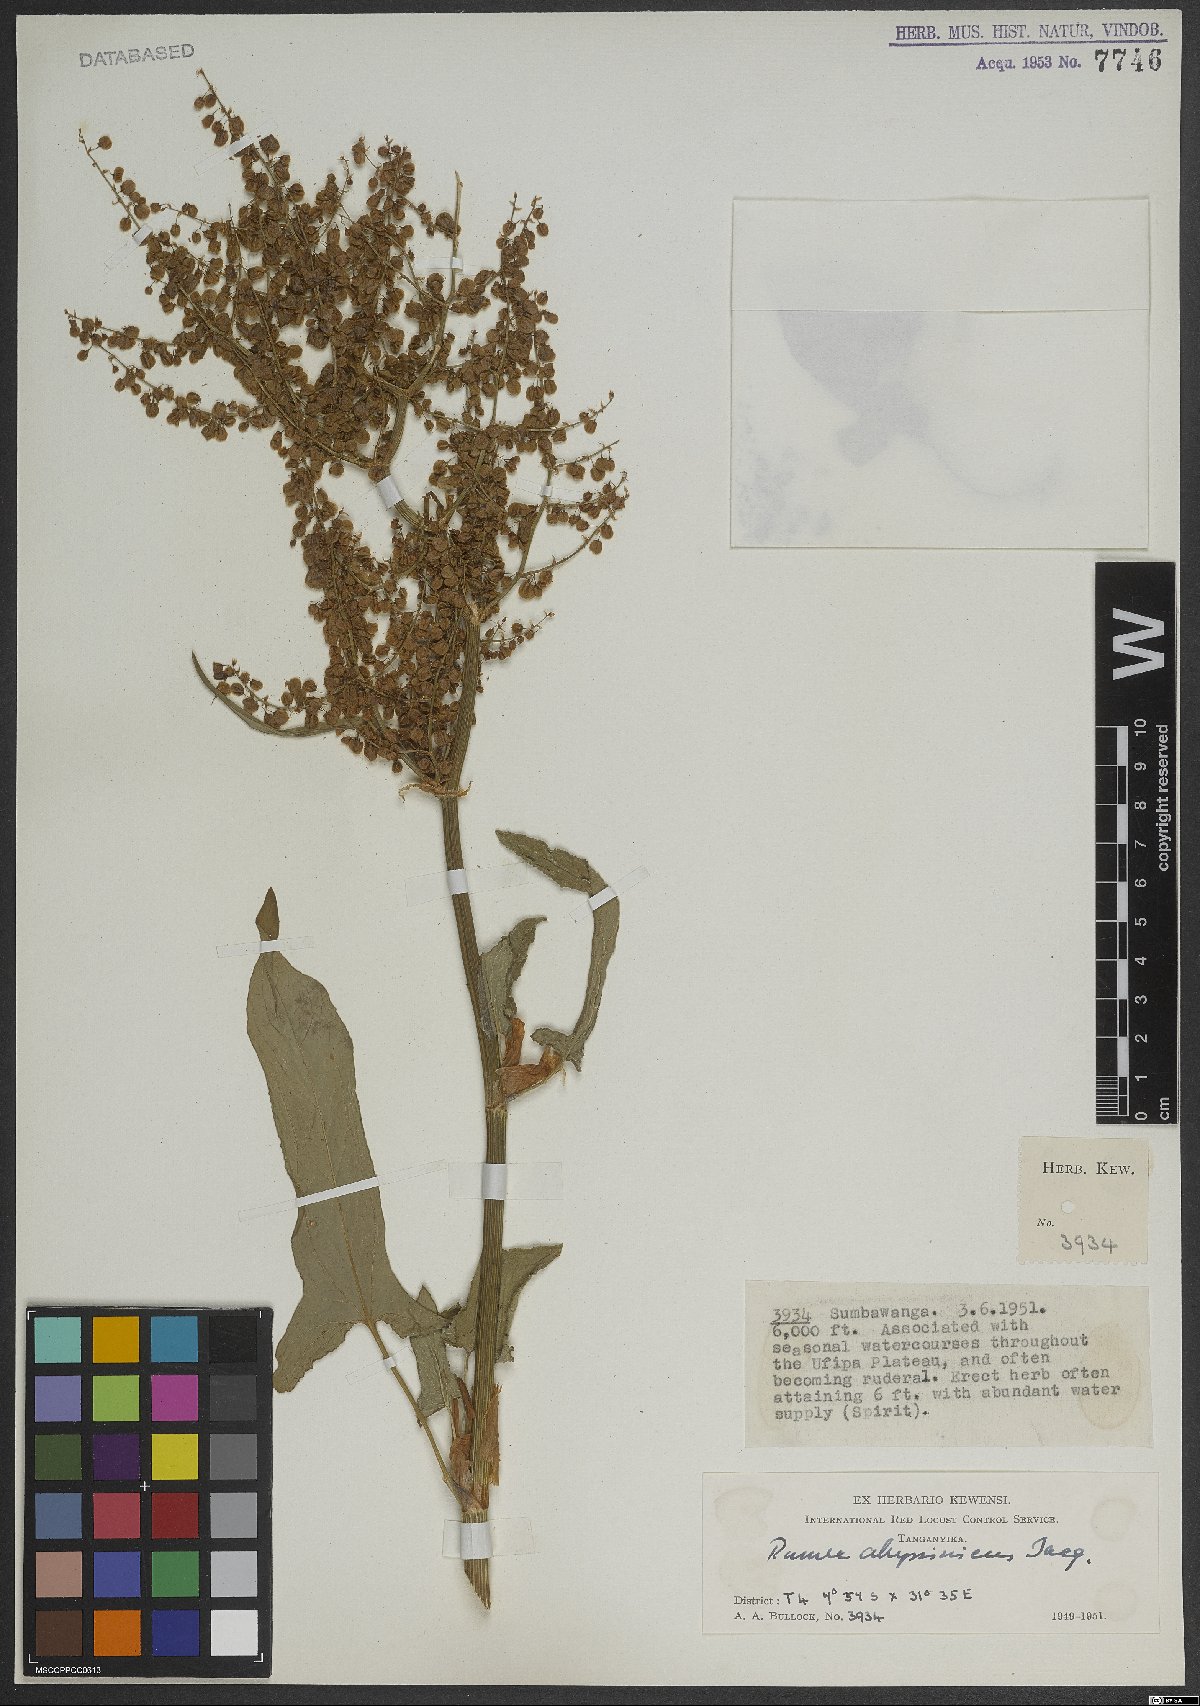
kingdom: Plantae
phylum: Tracheophyta
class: Magnoliopsida
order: Caryophyllales
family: Polygonaceae
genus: Rumex
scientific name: Rumex abyssinicus
